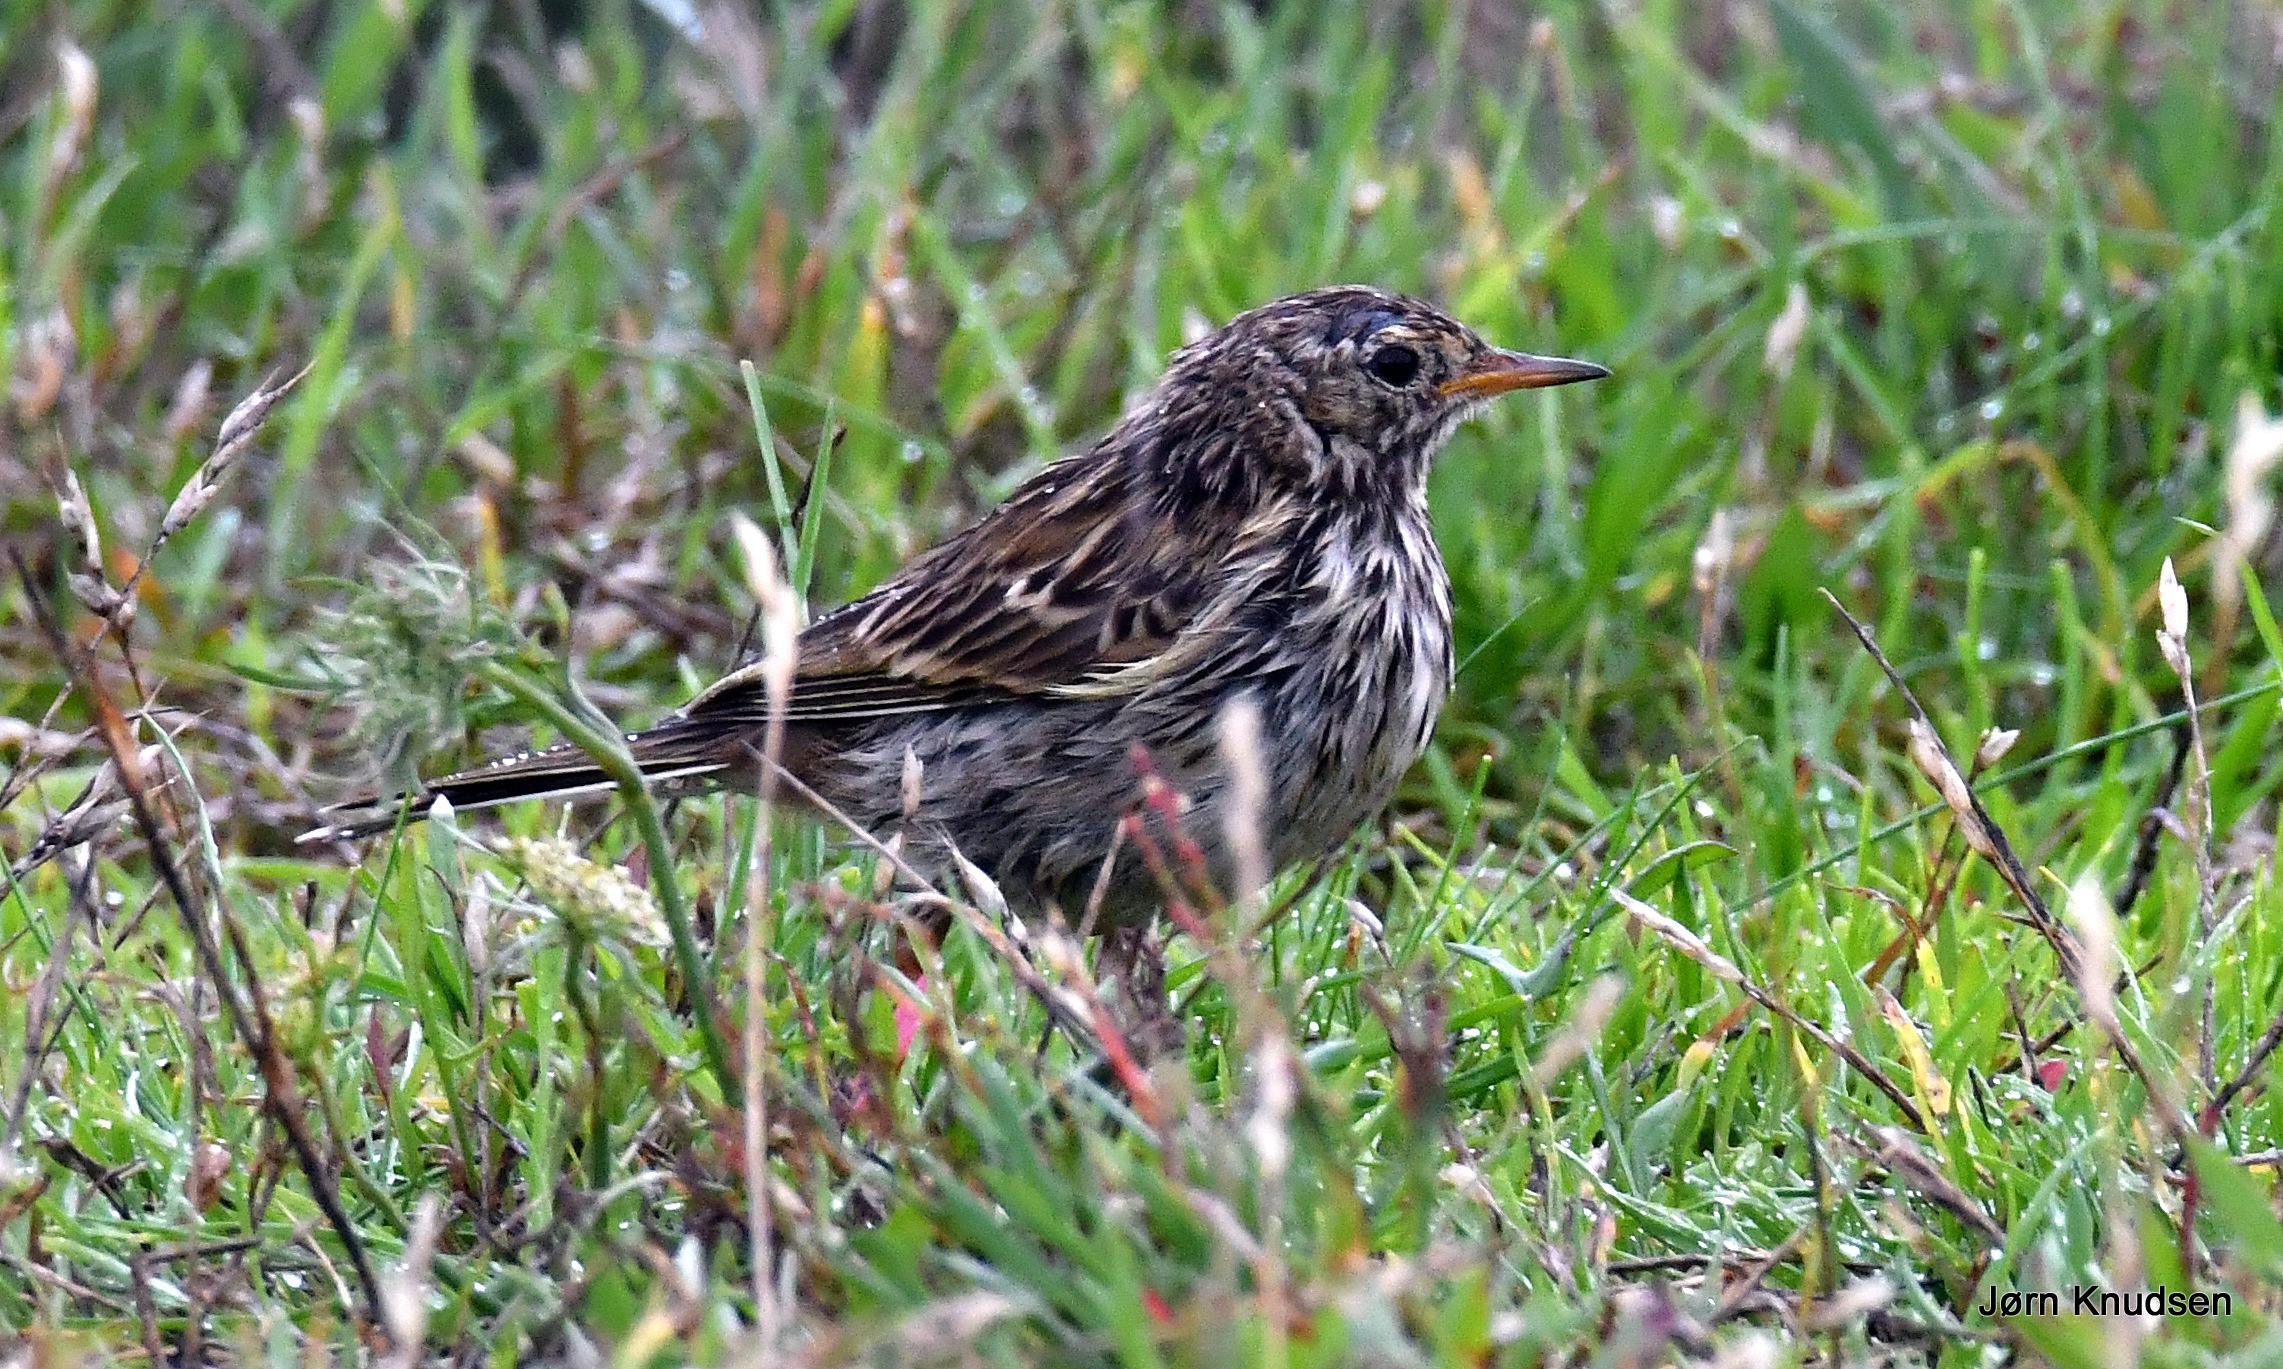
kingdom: Animalia
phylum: Chordata
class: Aves
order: Passeriformes
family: Motacillidae
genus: Anthus
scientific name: Anthus pratensis
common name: Engpiber
